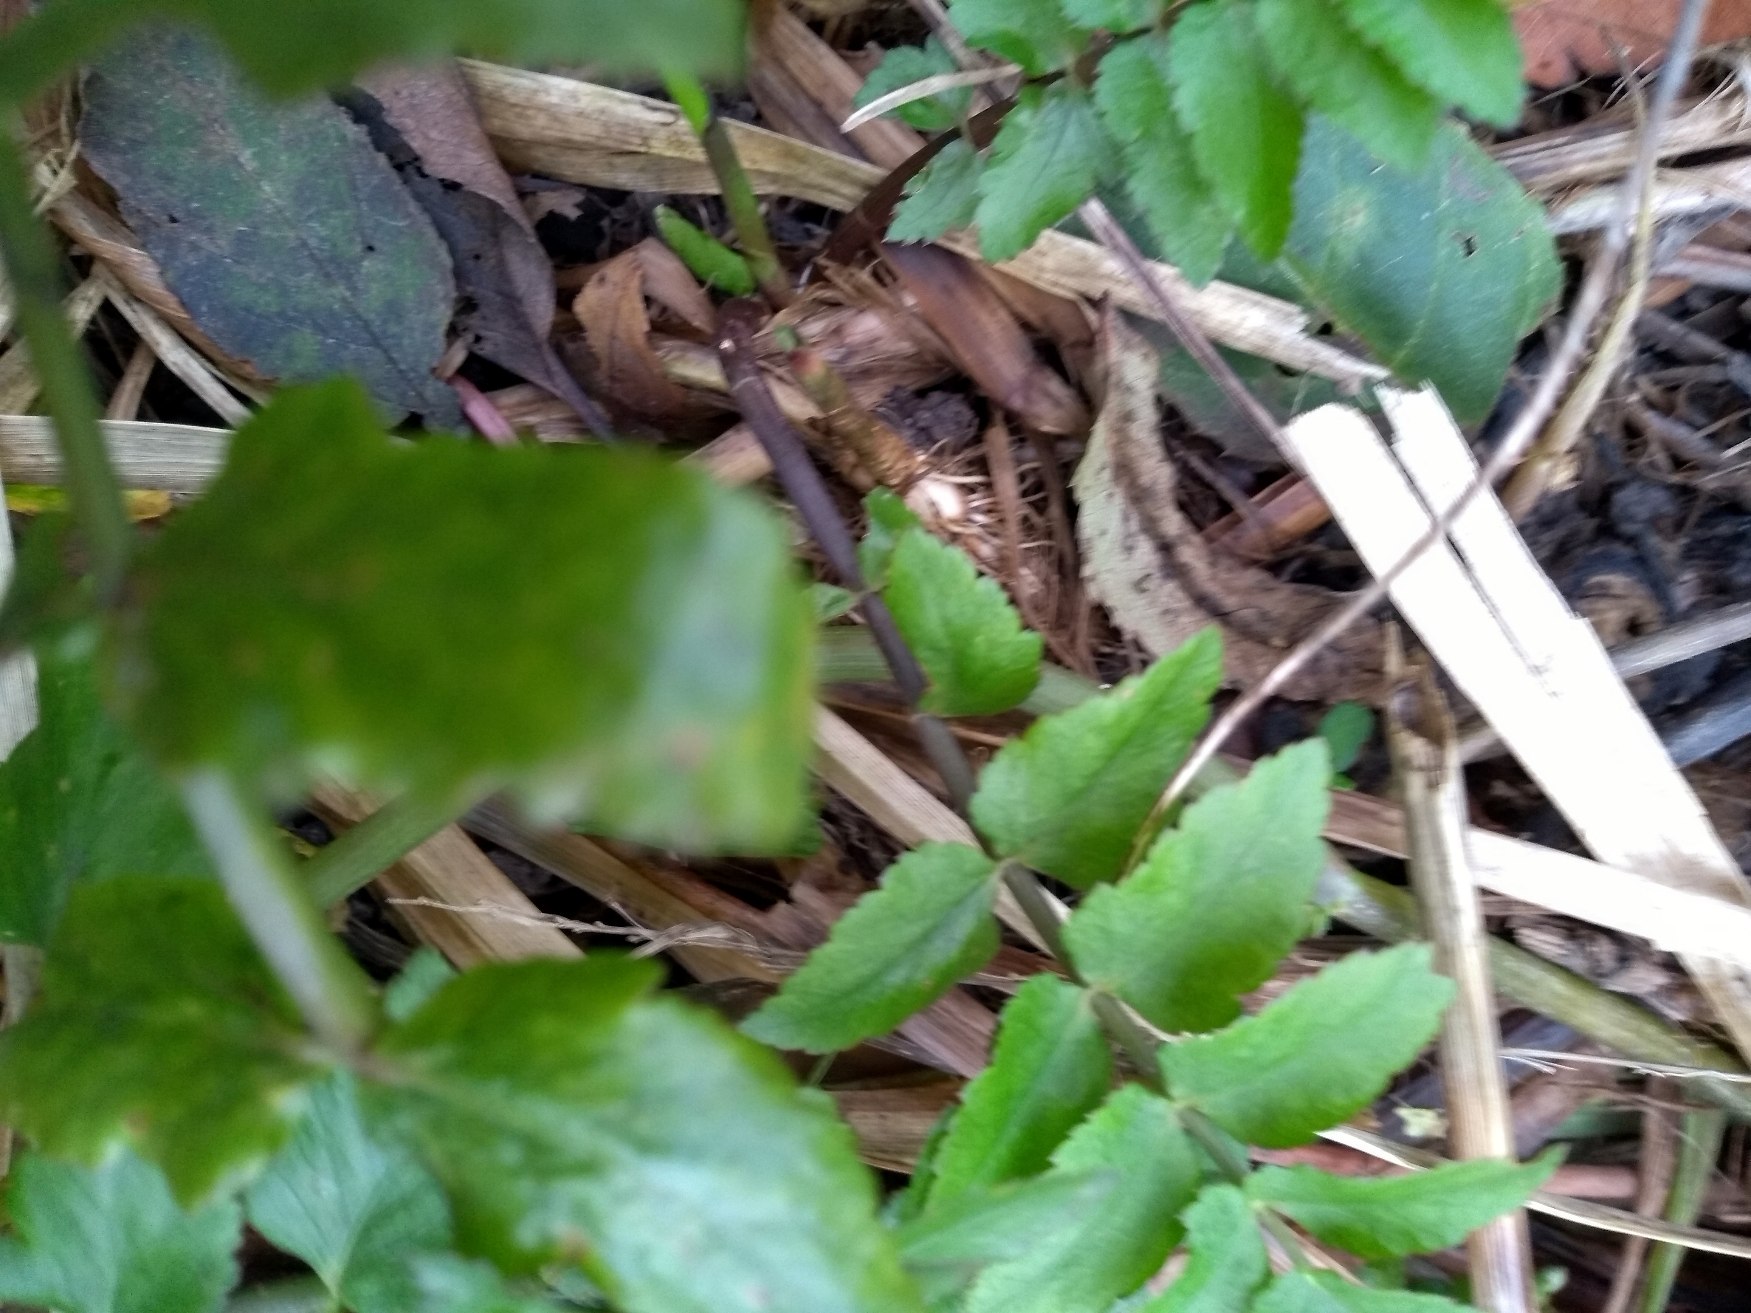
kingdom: Plantae
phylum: Tracheophyta
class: Magnoliopsida
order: Apiales
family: Apiaceae
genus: Berula
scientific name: Berula erecta
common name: Sideskærm
